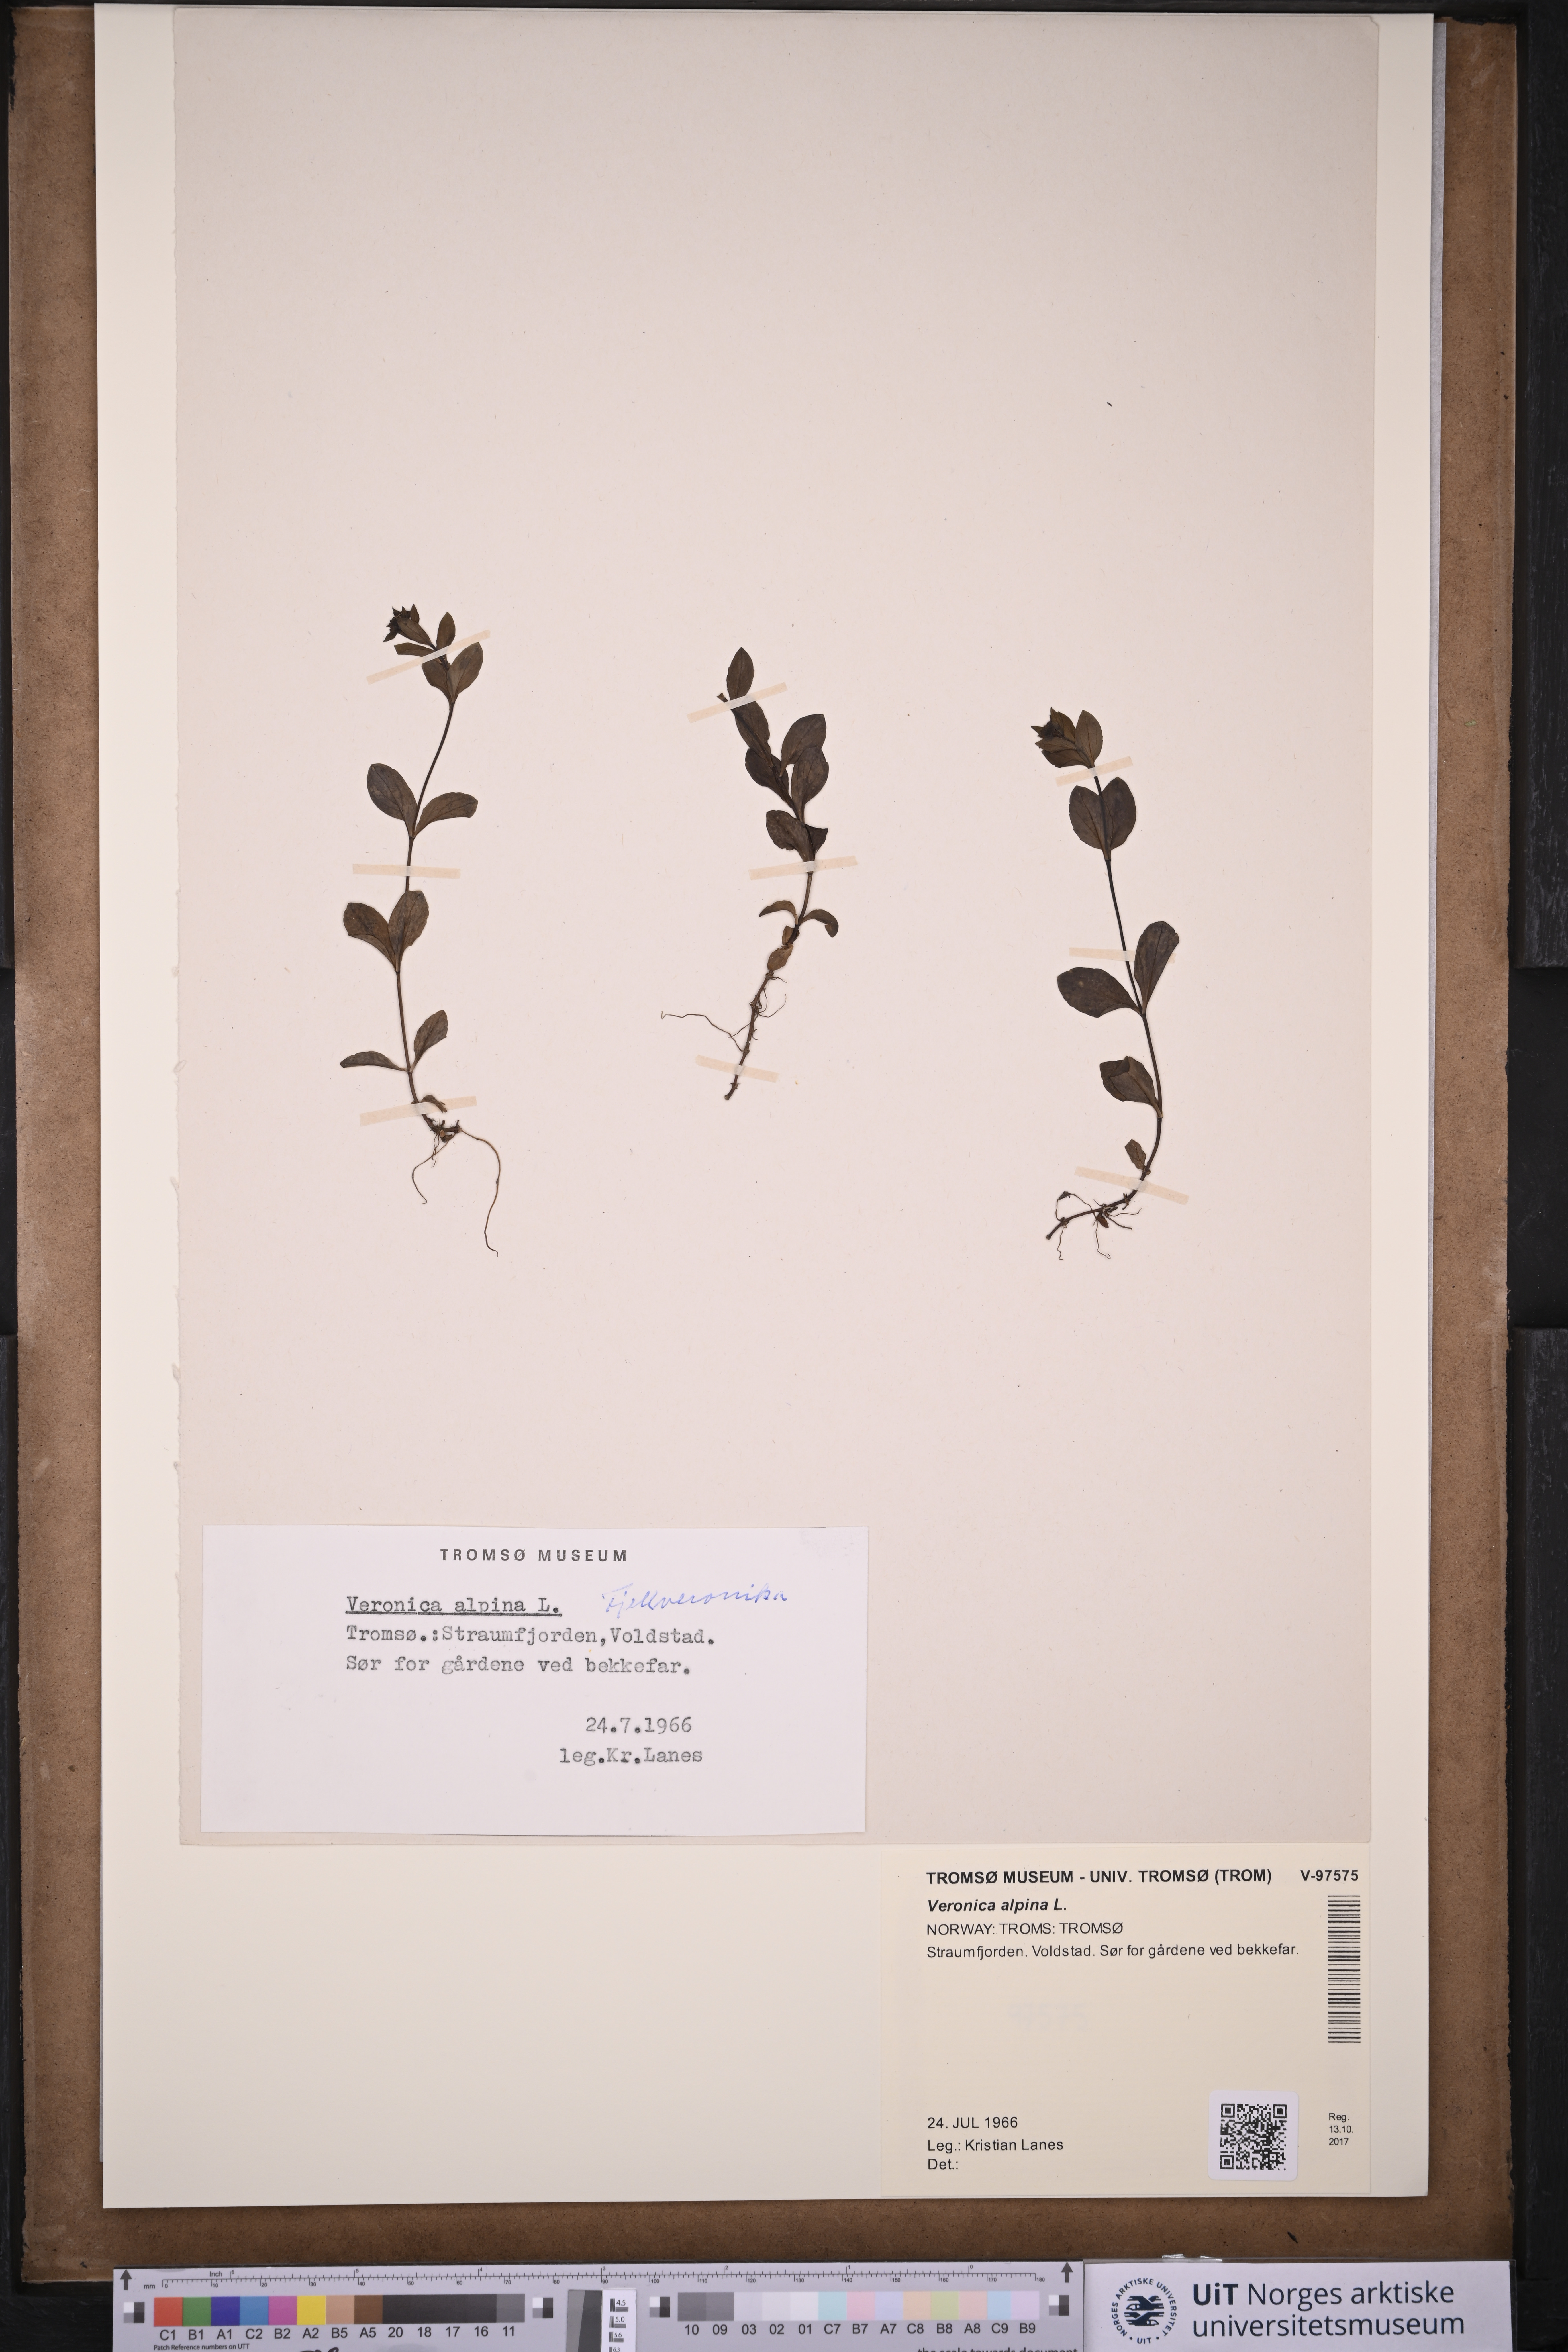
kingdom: Plantae
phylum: Tracheophyta
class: Magnoliopsida
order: Lamiales
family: Plantaginaceae
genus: Veronica
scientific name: Veronica alpina
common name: Alpine speedwell
